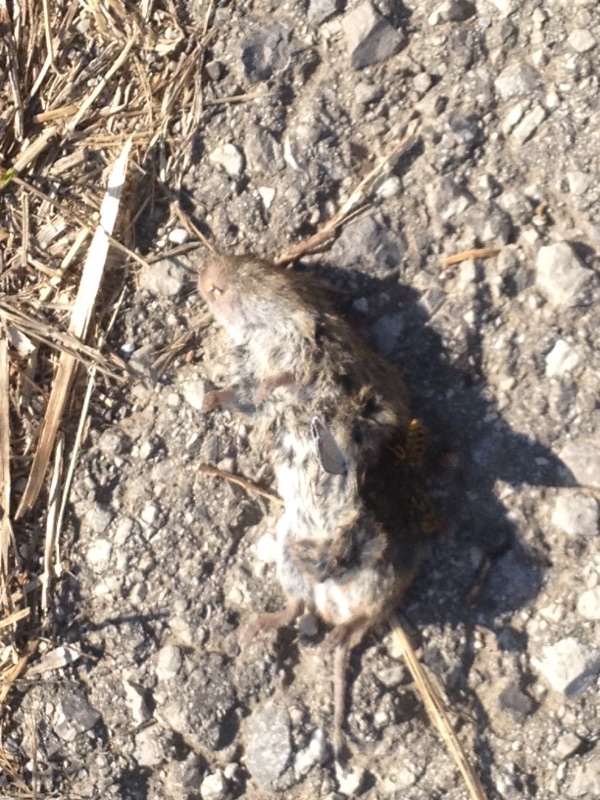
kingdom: Animalia
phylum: Chordata
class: Mammalia
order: Rodentia
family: Cricetidae
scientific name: Cricetidae
